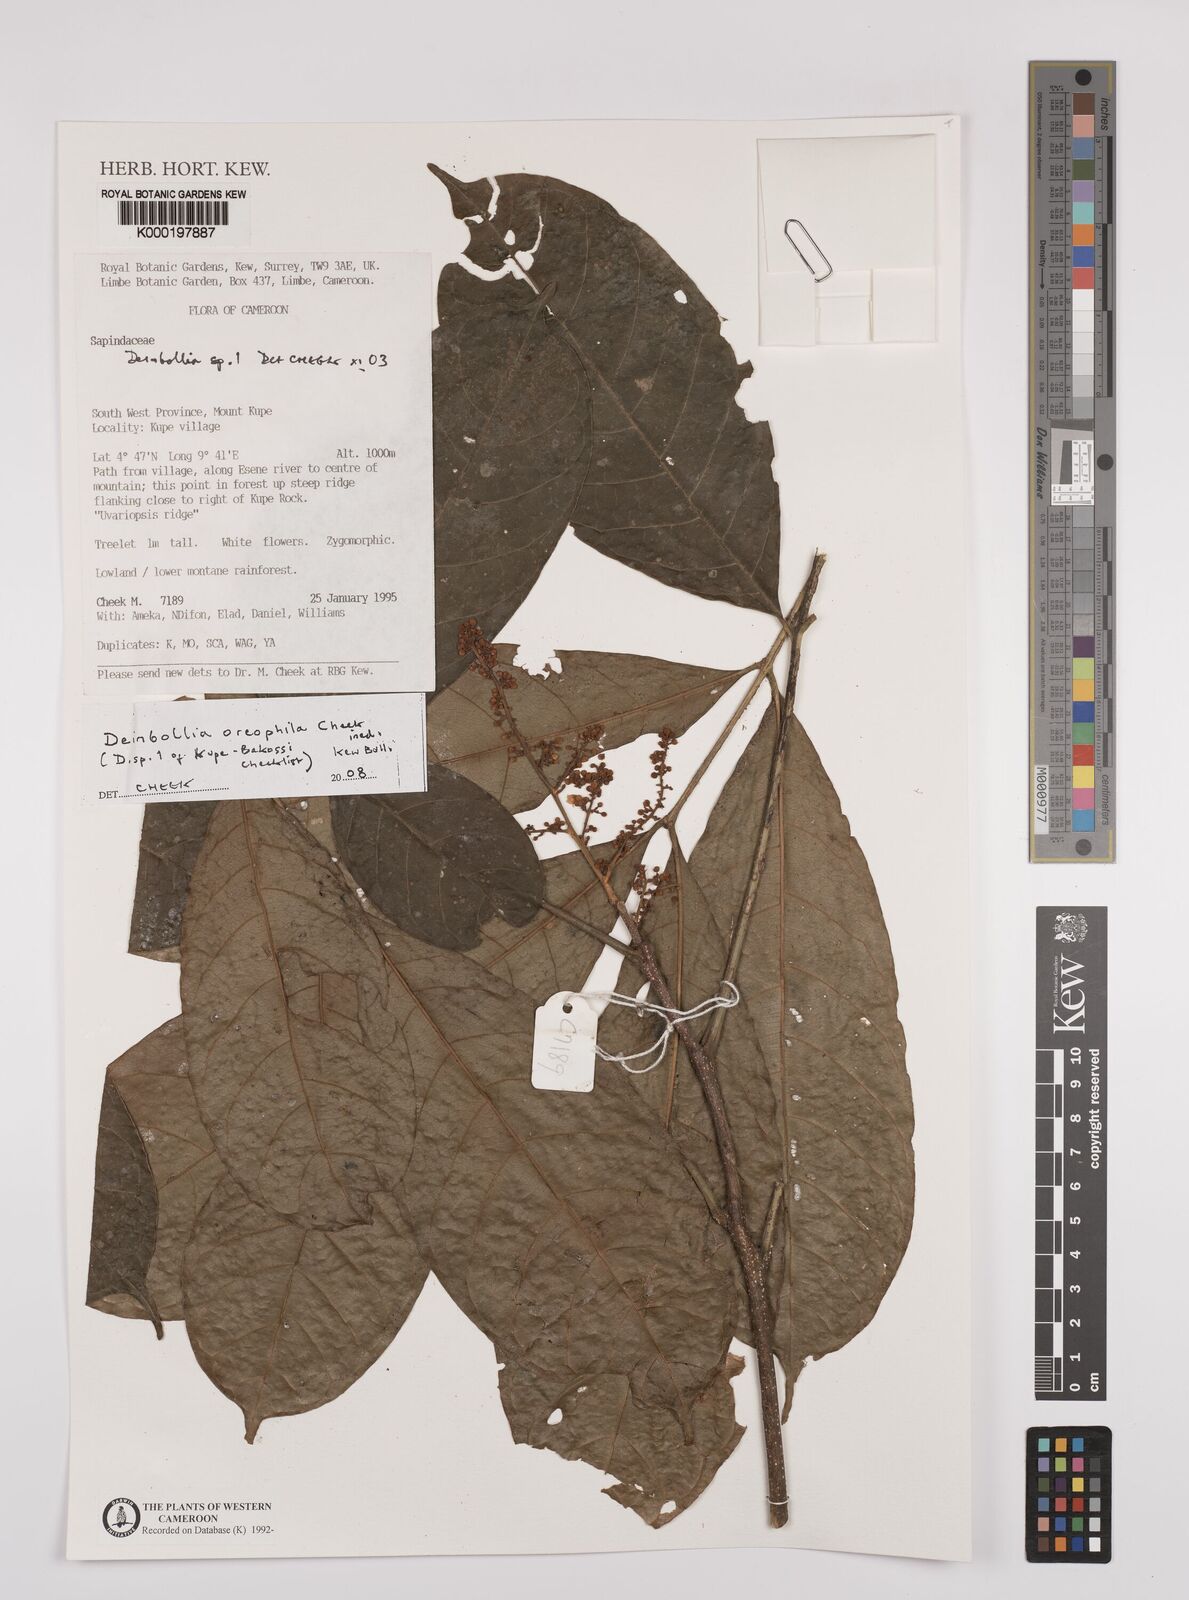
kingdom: Plantae
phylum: Tracheophyta
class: Magnoliopsida
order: Sapindales
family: Sapindaceae
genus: Deinbollia
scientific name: Deinbollia oreophila
